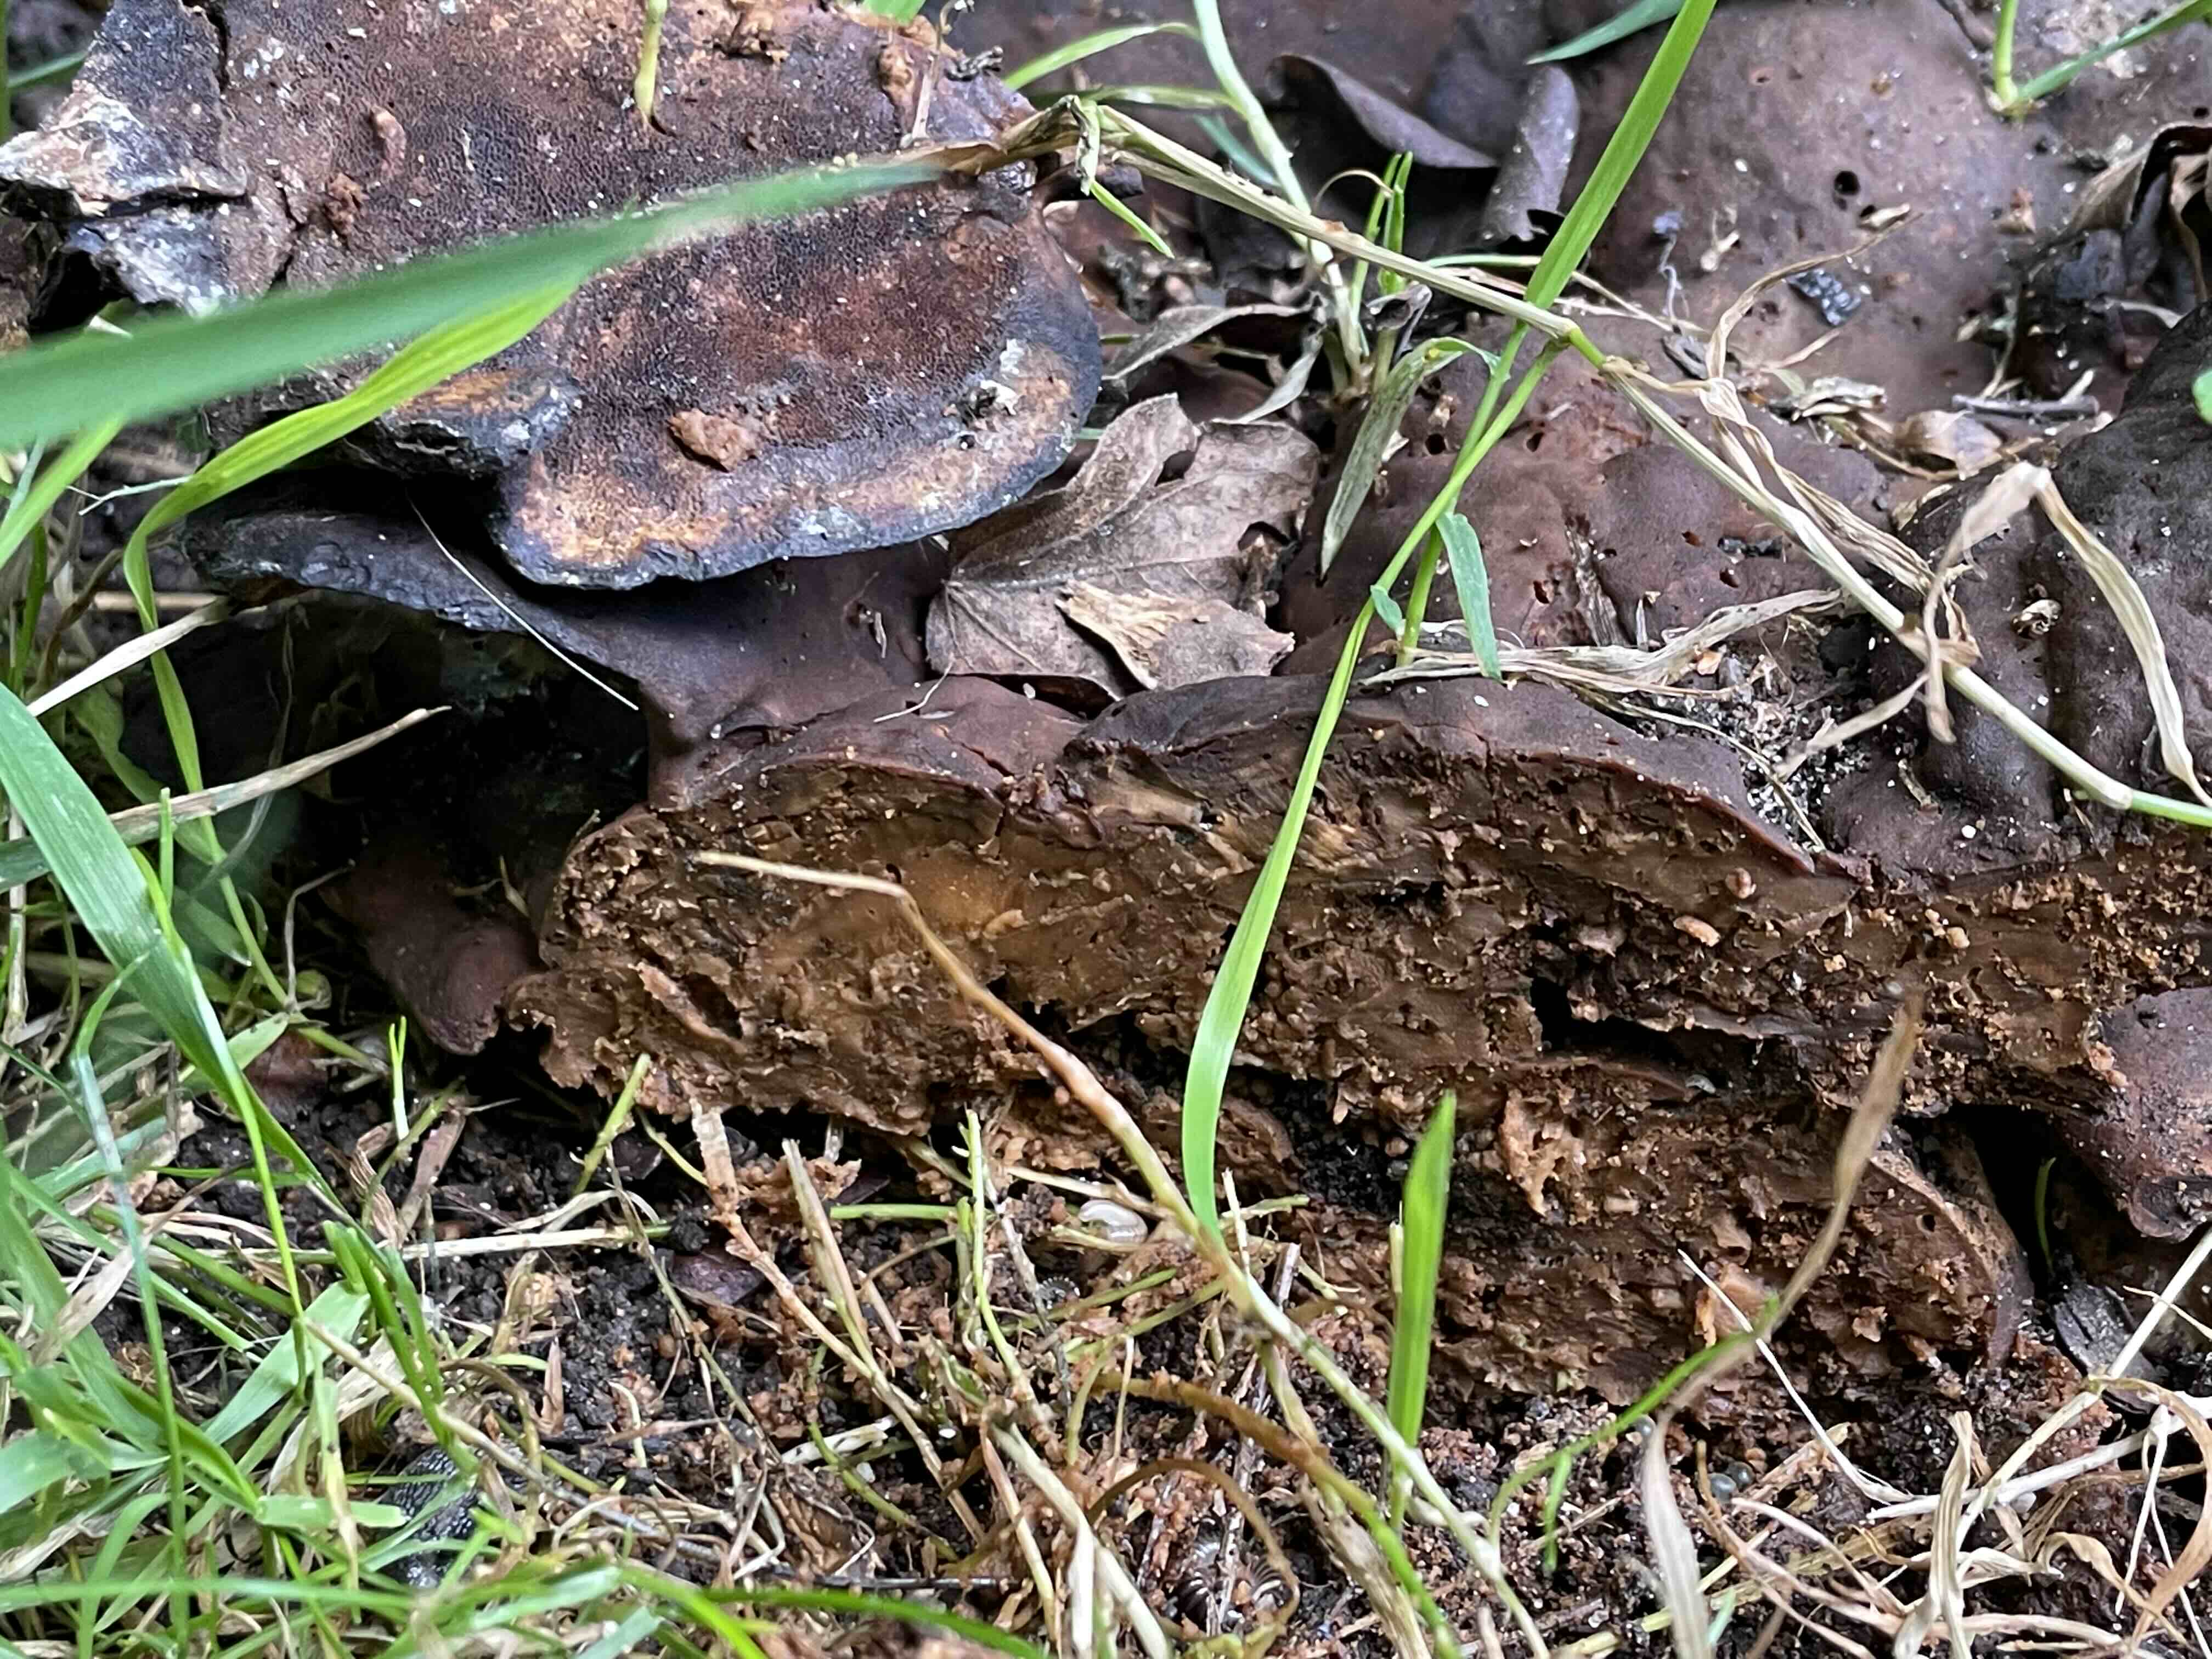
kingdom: Fungi
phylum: Basidiomycota
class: Agaricomycetes
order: Polyporales
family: Laetiporaceae
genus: Phaeolus
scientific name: Phaeolus schweinitzii
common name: brunporesvamp
